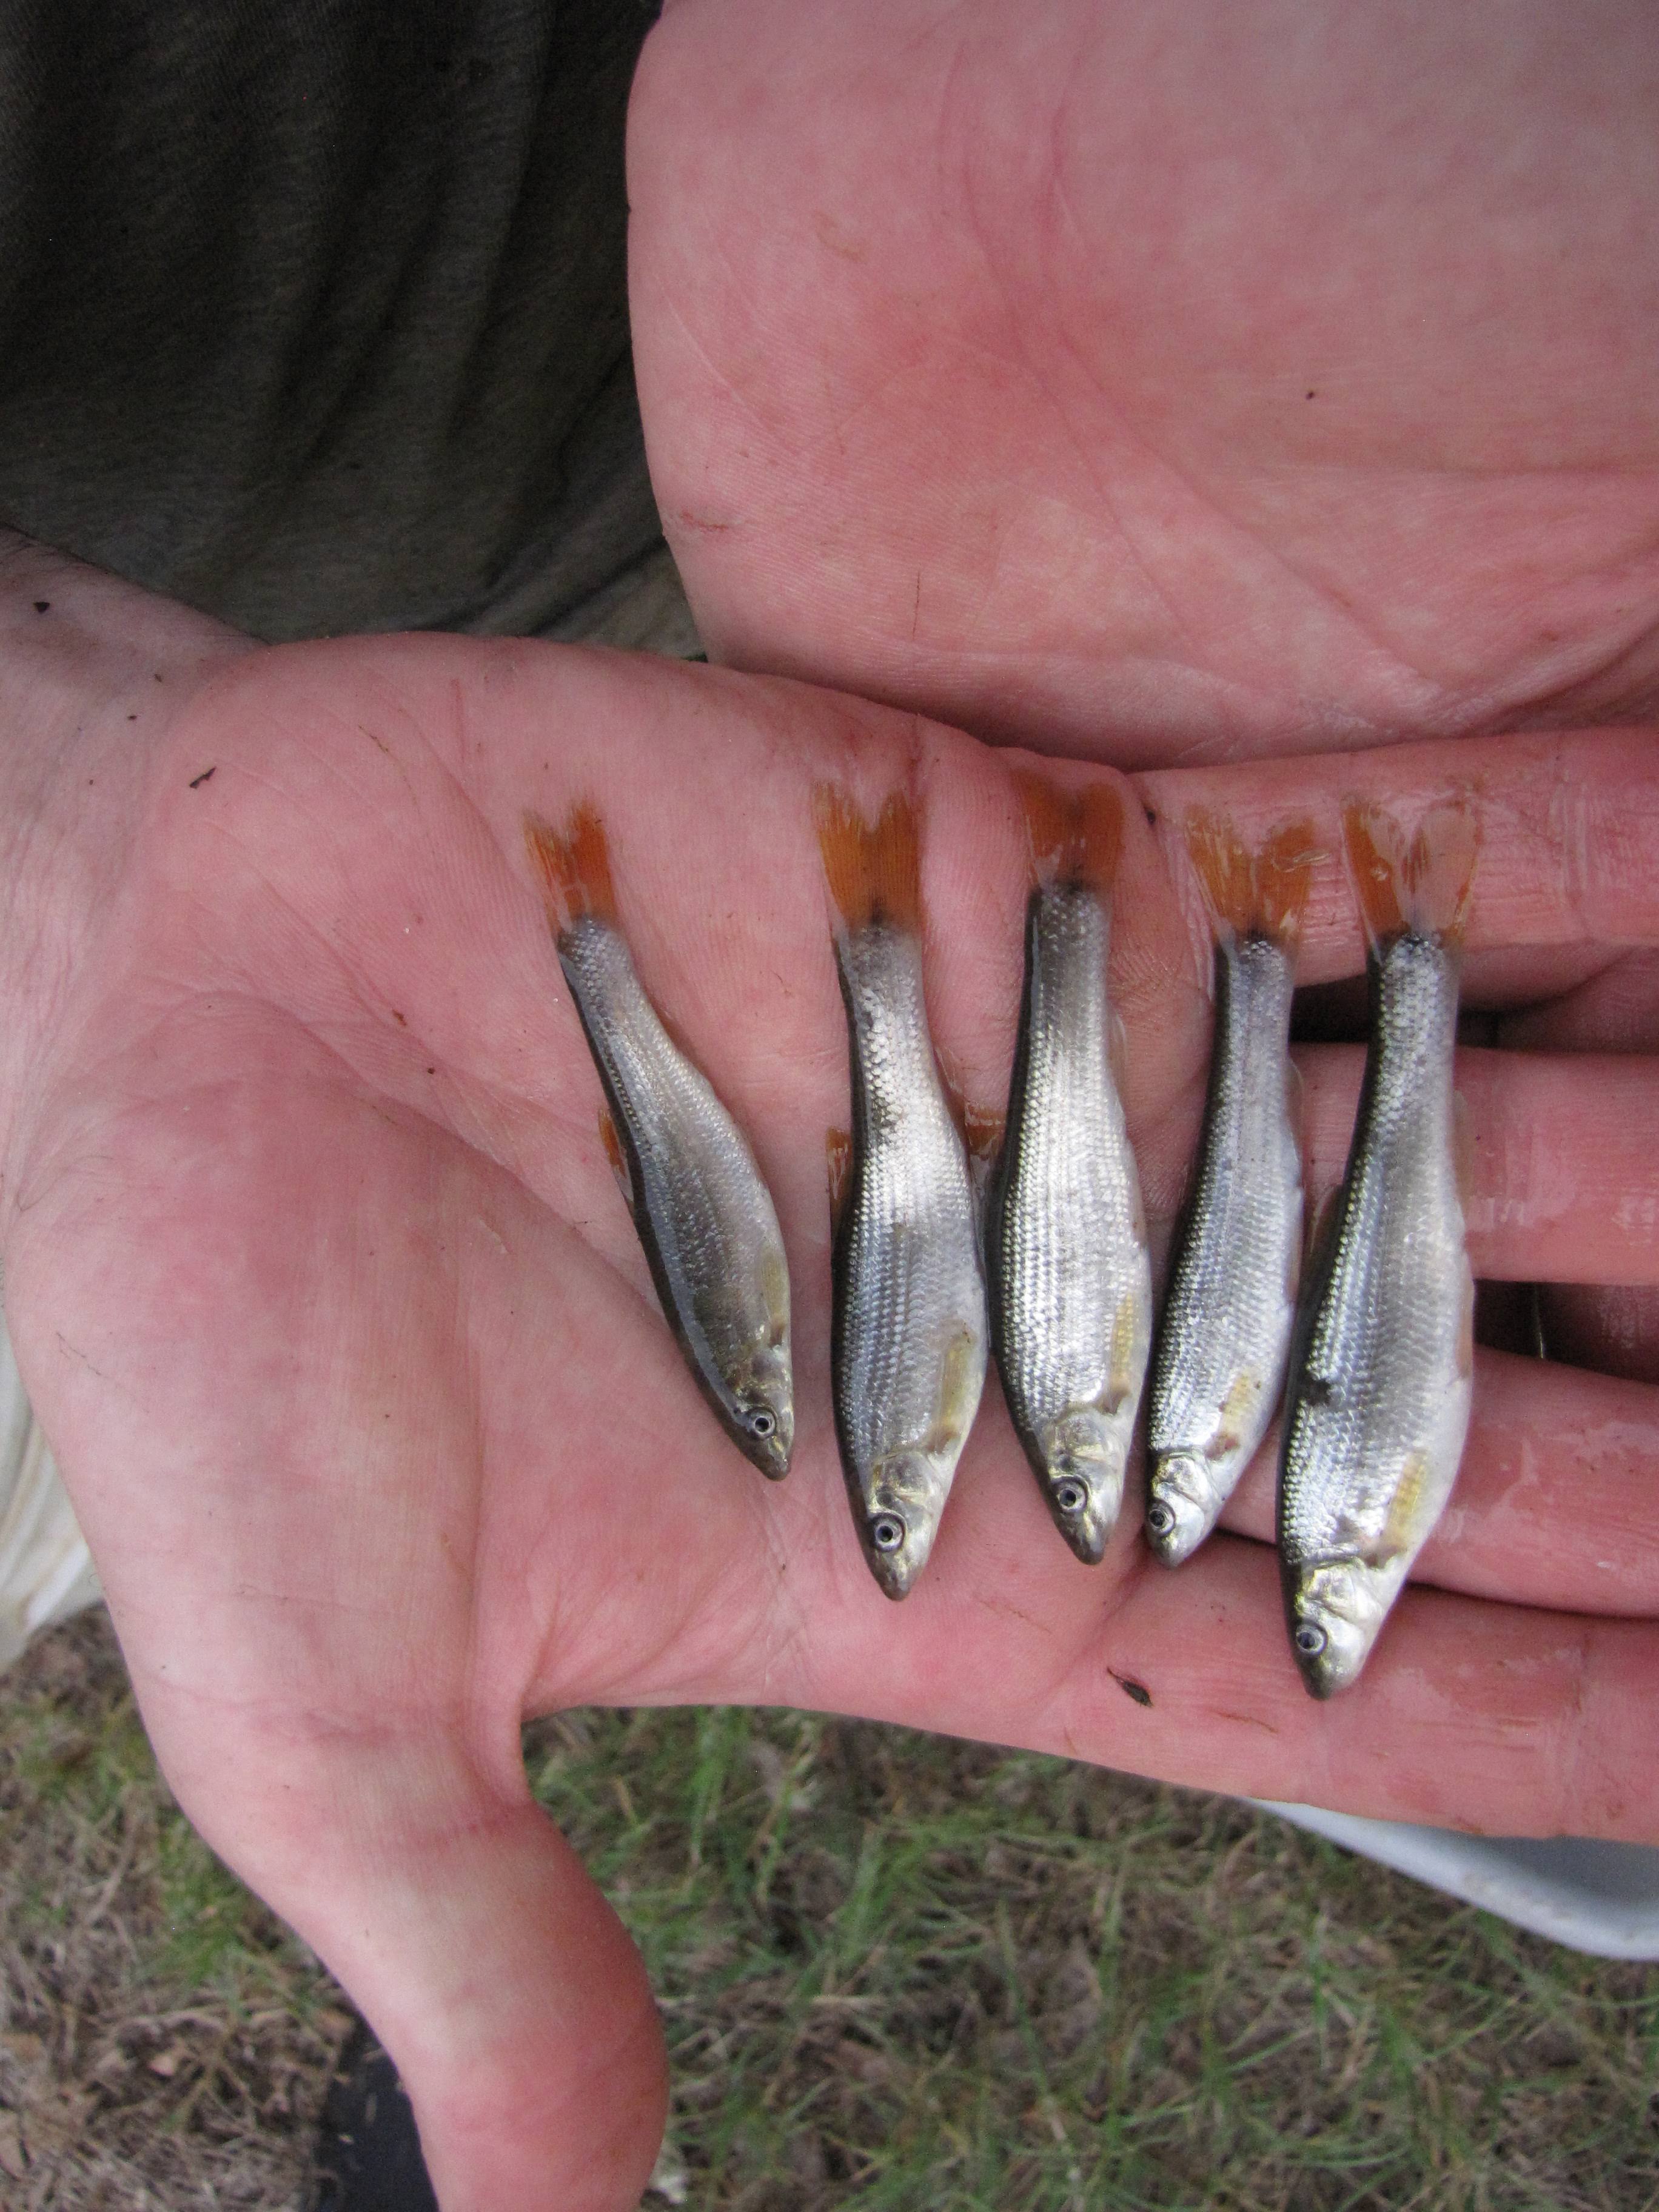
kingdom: Animalia
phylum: Chordata
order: Cypriniformes
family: Cyprinidae
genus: Campostoma
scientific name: Campostoma spadiceum
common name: Highland stoneroller
